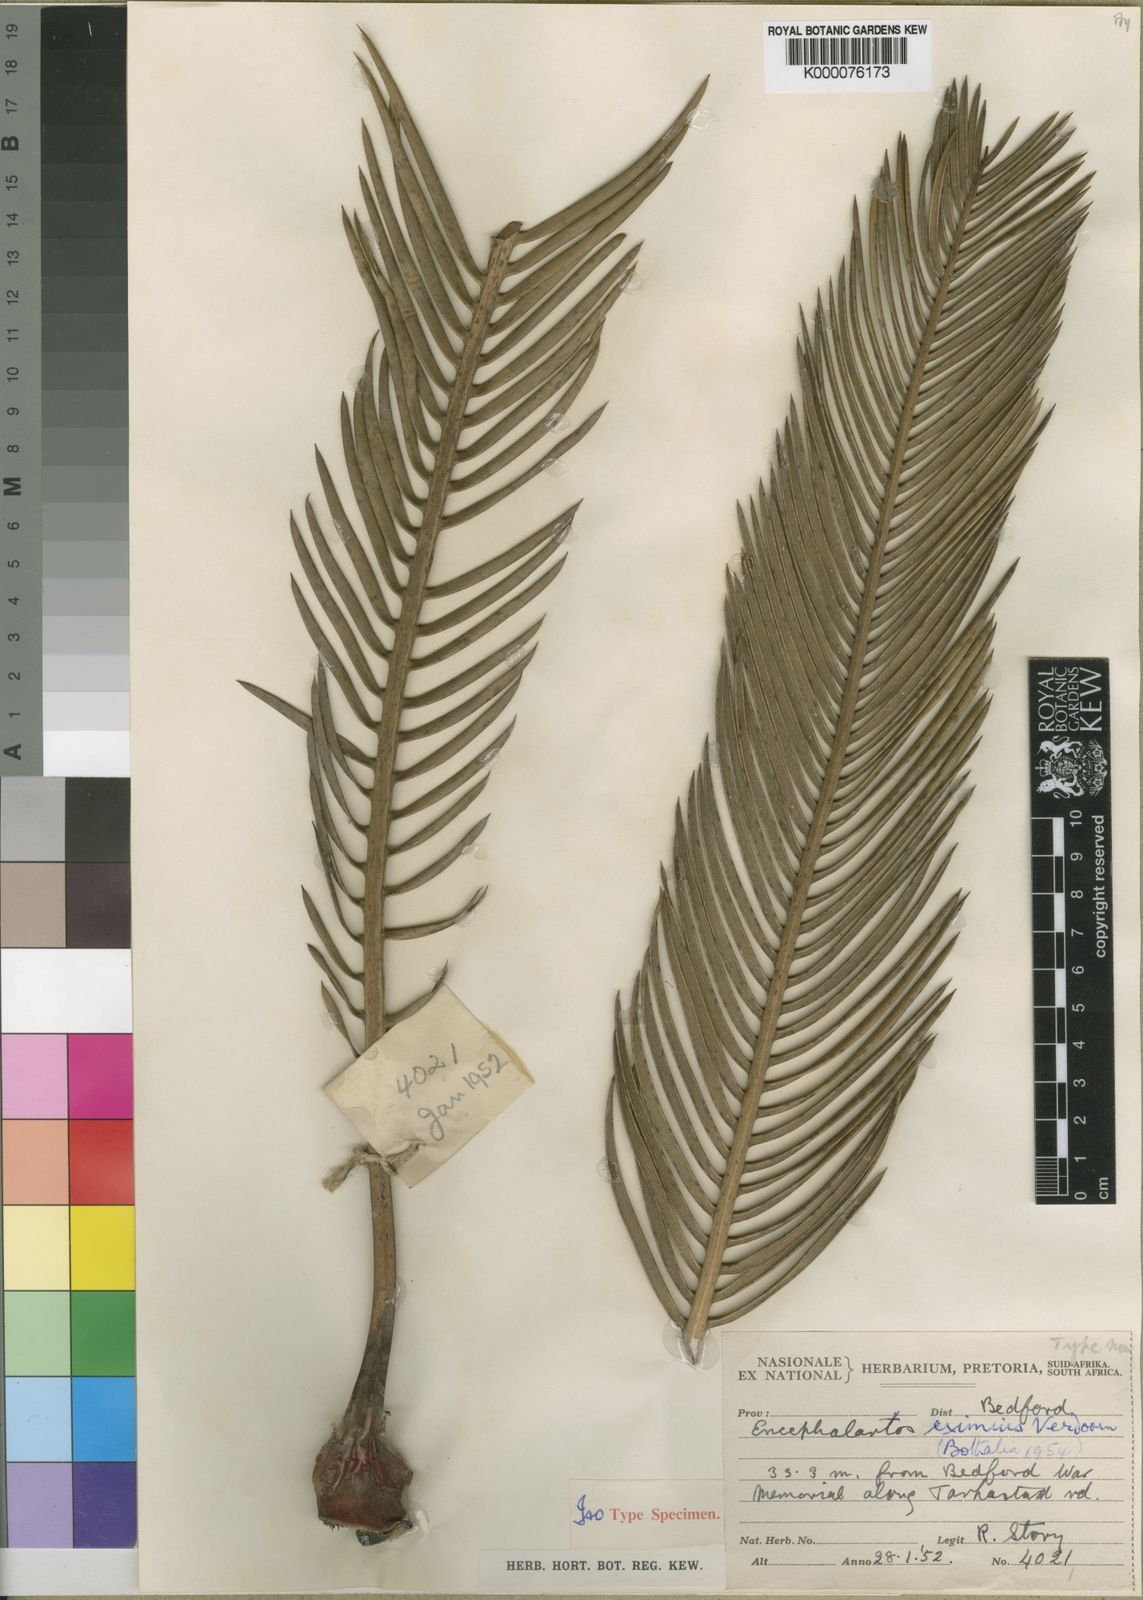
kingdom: Plantae
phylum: Tracheophyta
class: Cycadopsida
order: Cycadales
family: Zamiaceae
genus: Encephalartos
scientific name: Encephalartos cycadifolius
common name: Winterberg cycad
